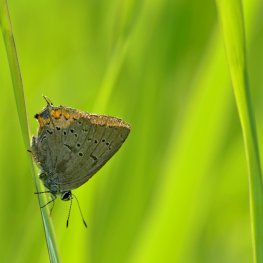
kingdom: Animalia
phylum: Arthropoda
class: Insecta
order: Lepidoptera
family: Lycaenidae
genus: Strymon
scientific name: Strymon acadica
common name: Acadian Hairstreak
